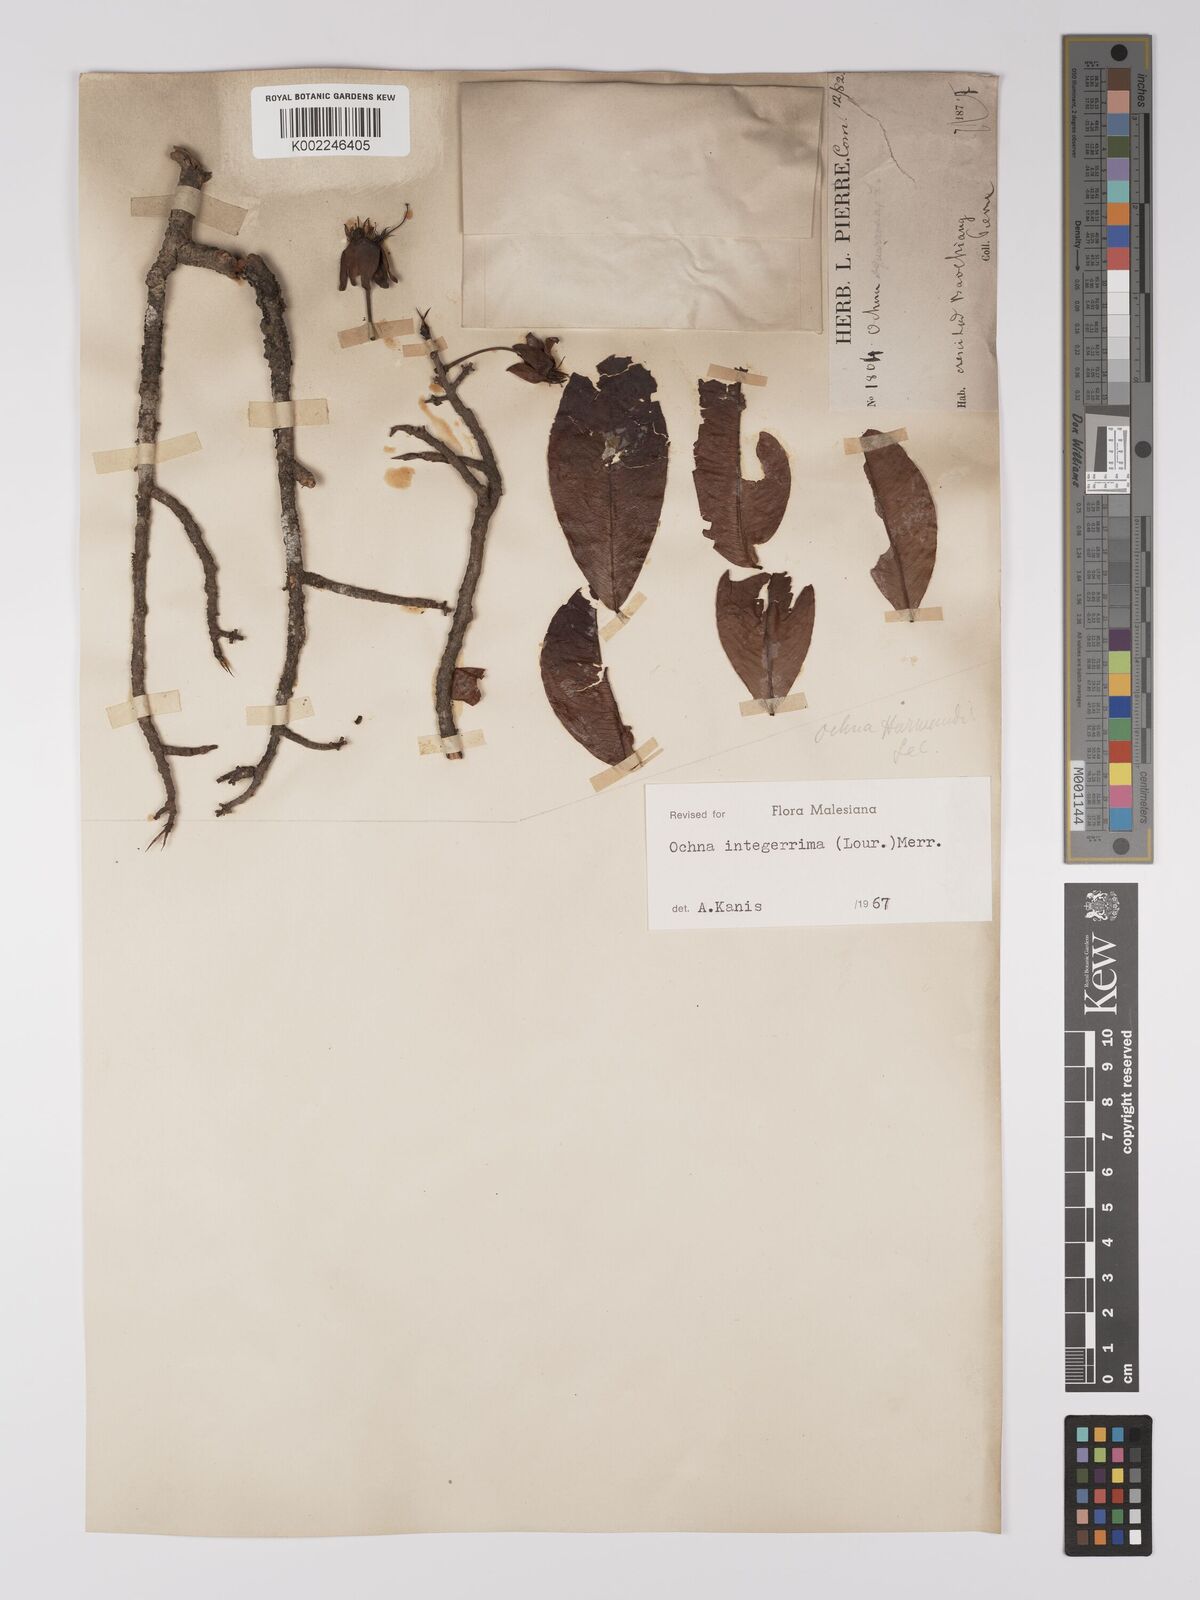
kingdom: Plantae
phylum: Tracheophyta
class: Magnoliopsida
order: Malpighiales
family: Ochnaceae
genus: Ochna
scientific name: Ochna integerrima
